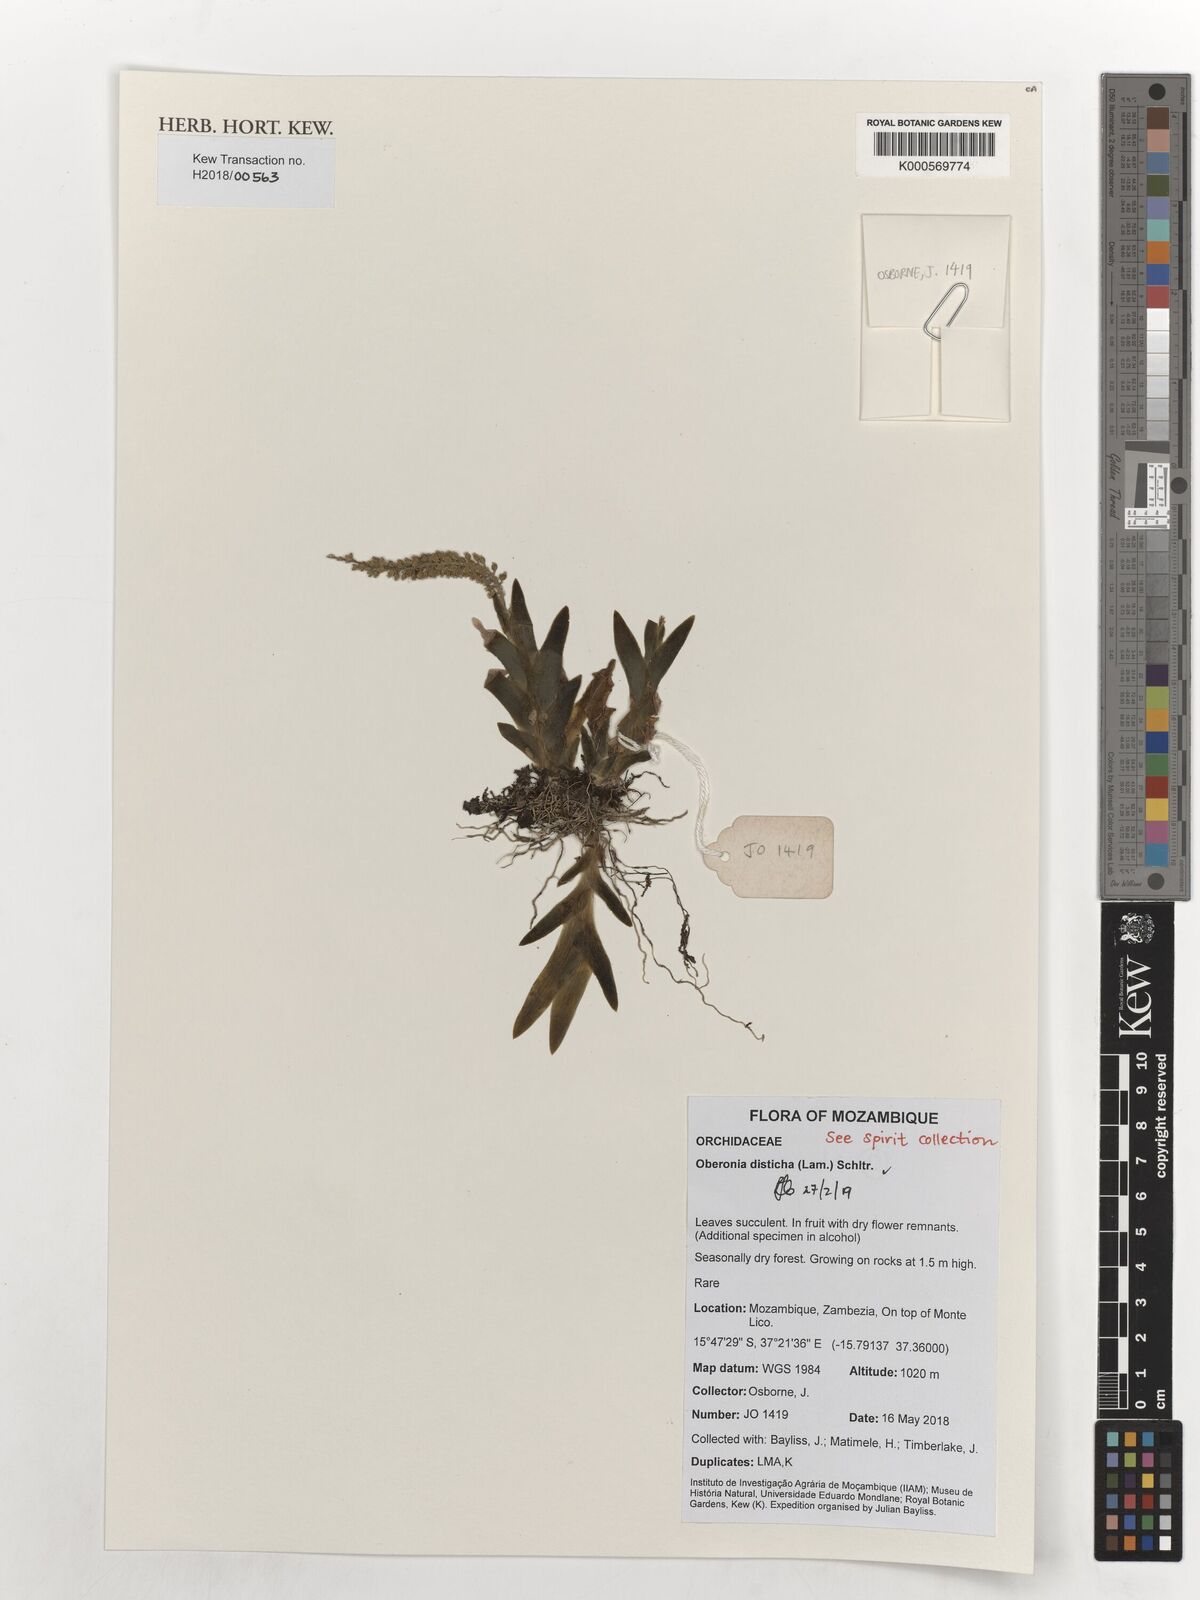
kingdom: Plantae
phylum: Tracheophyta
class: Liliopsida
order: Asparagales
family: Orchidaceae
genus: Oberonia
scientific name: Oberonia disticha
